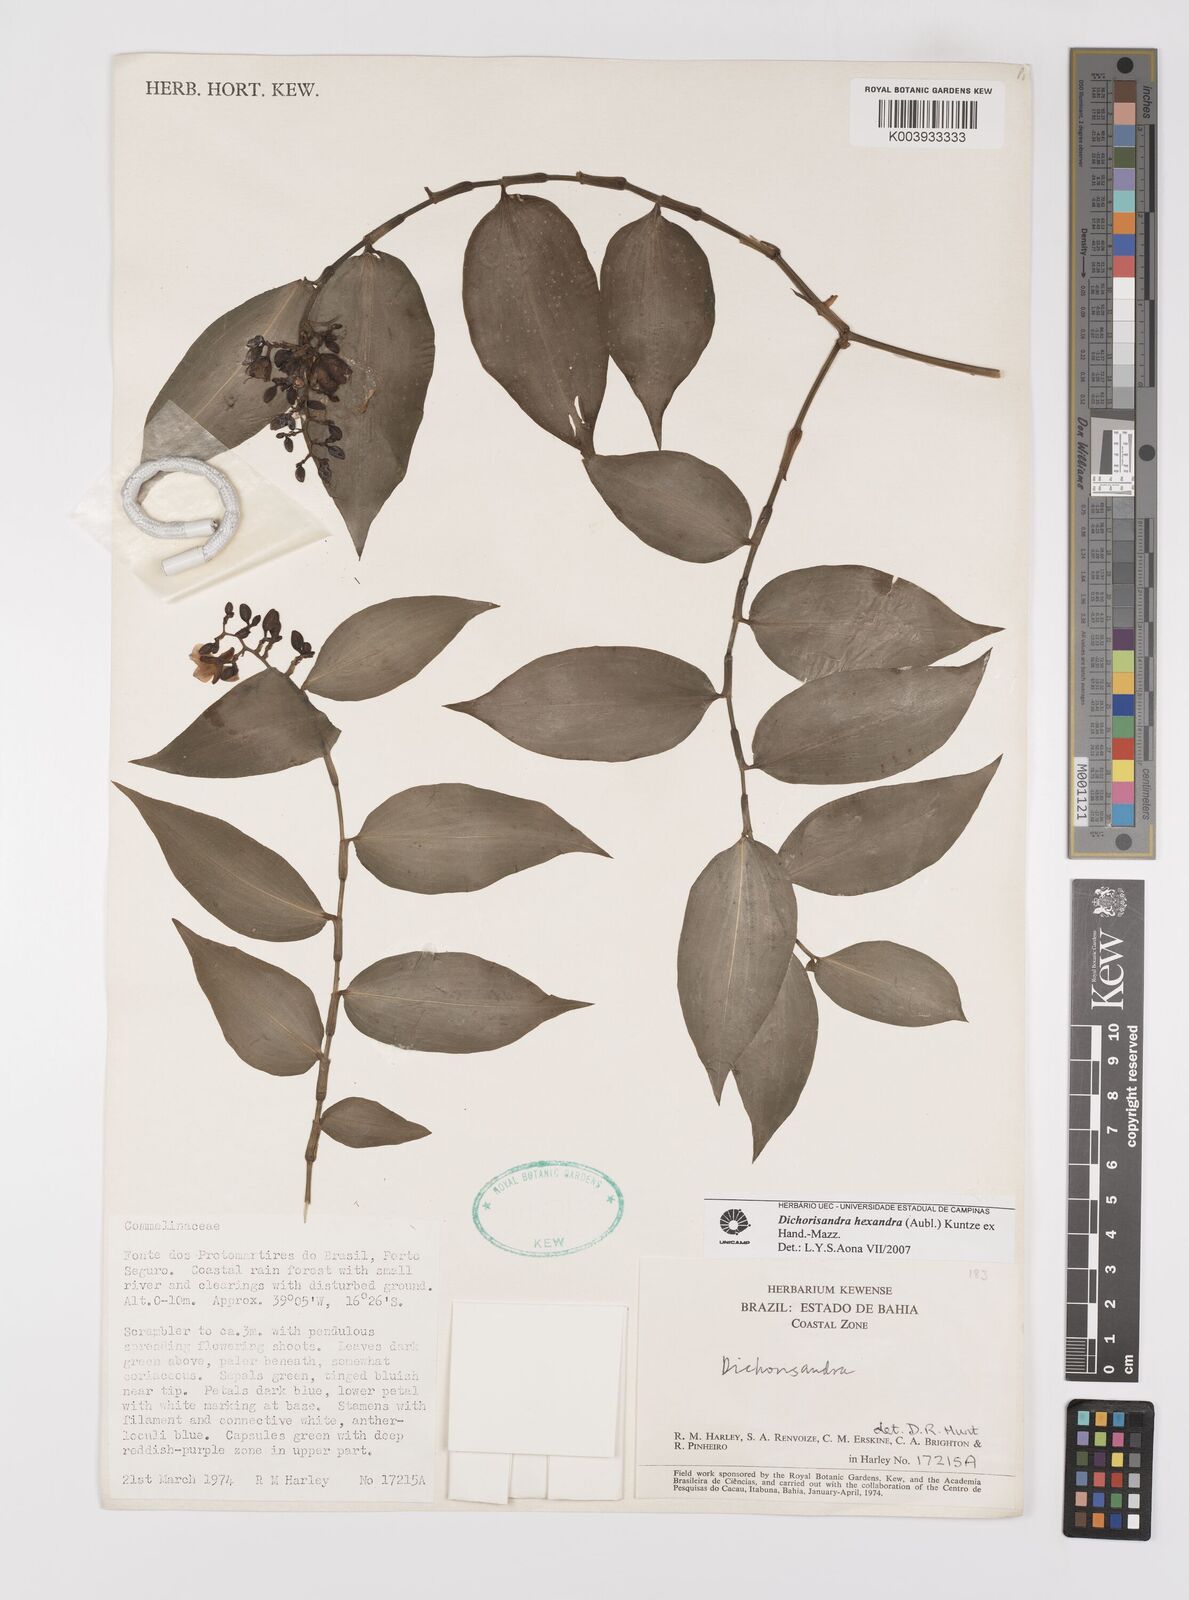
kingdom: Plantae
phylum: Tracheophyta
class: Liliopsida
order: Commelinales
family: Commelinaceae
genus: Dichorisandra
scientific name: Dichorisandra
